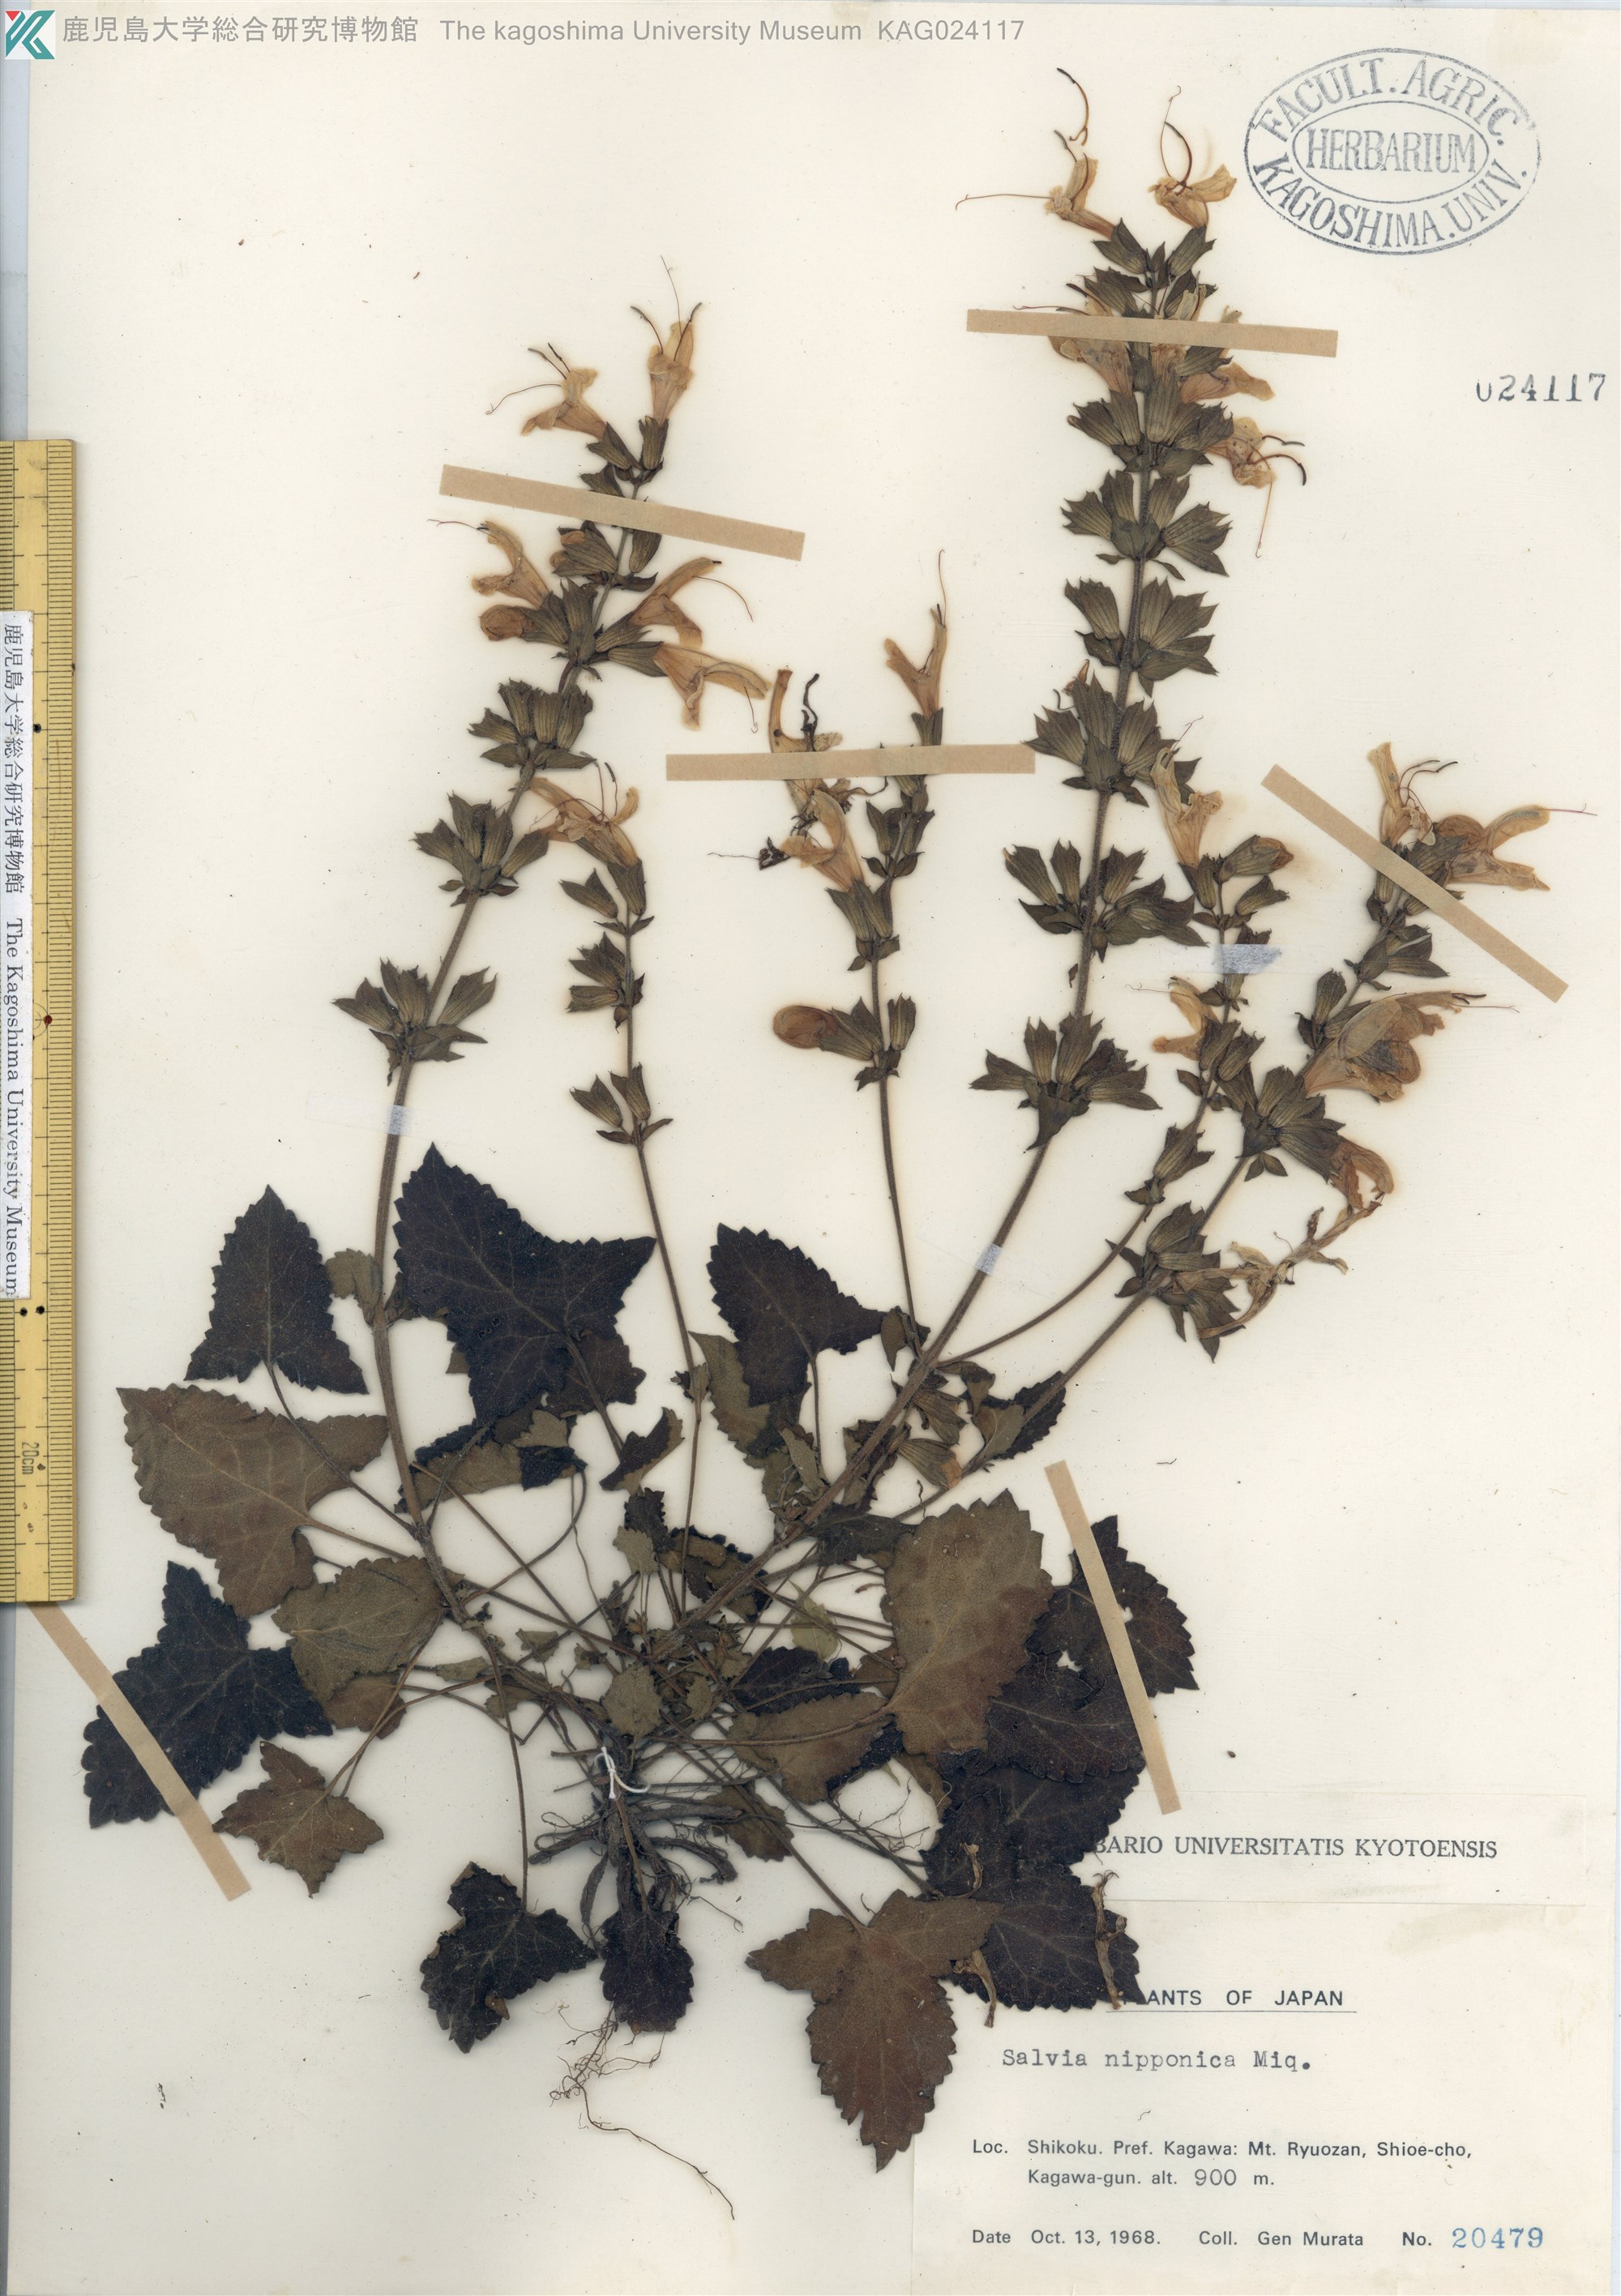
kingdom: Plantae
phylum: Tracheophyta
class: Magnoliopsida
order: Lamiales
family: Lamiaceae
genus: Salvia
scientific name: Salvia nipponica
